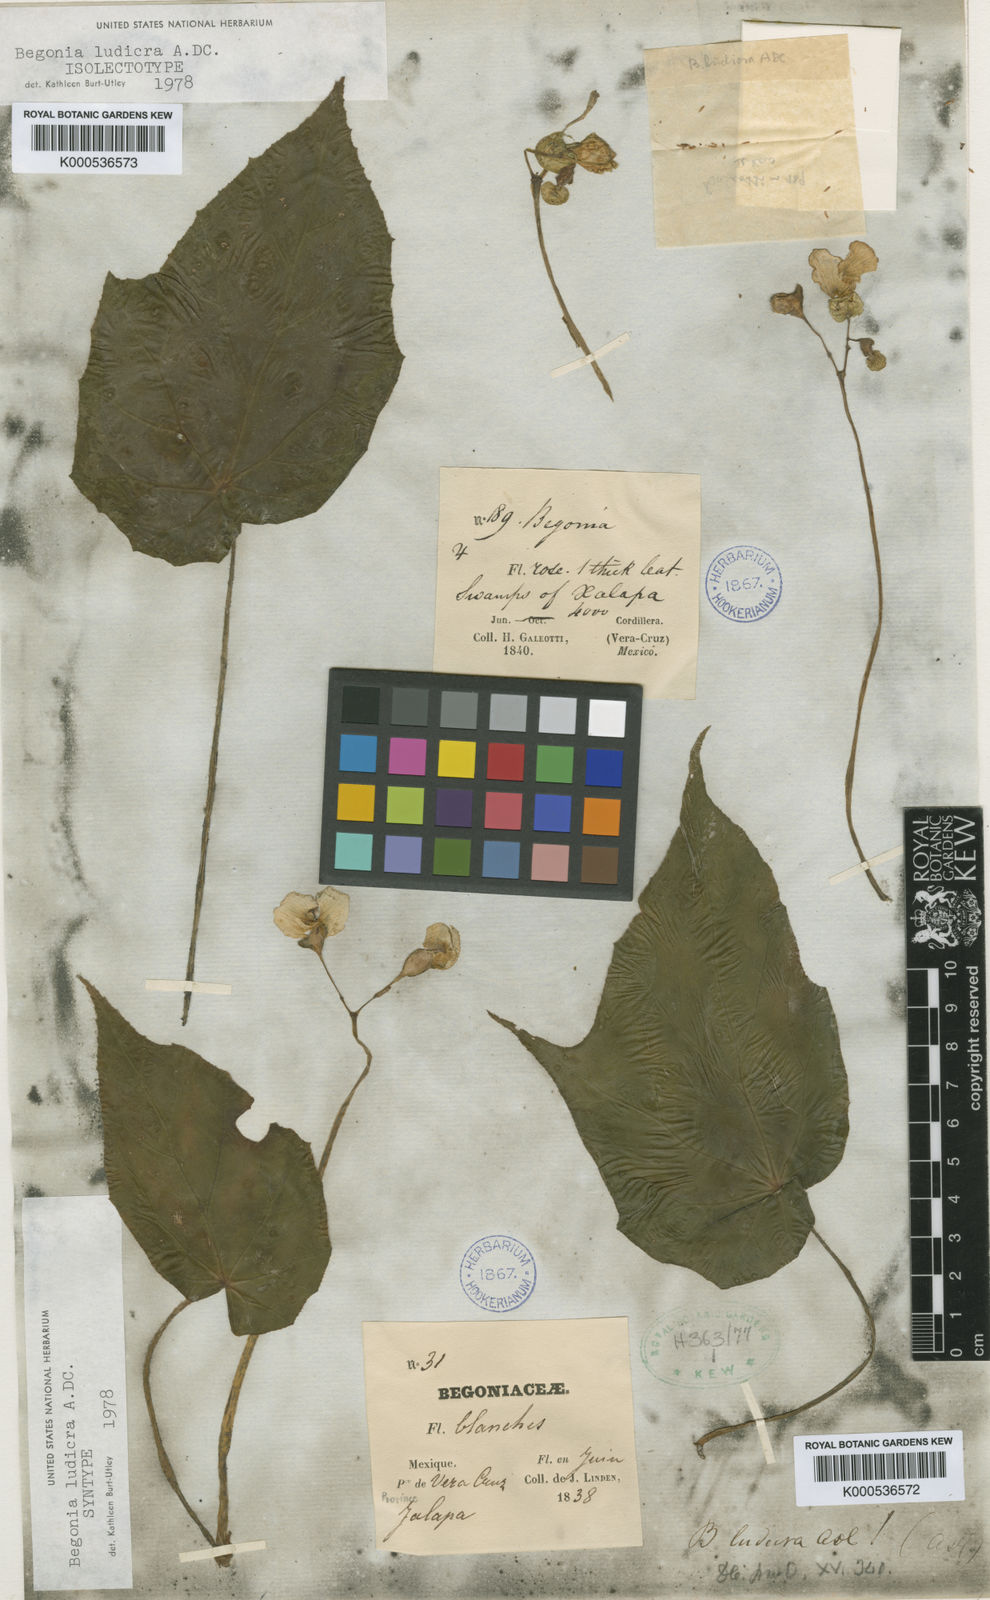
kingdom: Plantae
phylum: Tracheophyta
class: Magnoliopsida
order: Cucurbitales
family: Begoniaceae
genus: Begonia
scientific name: Begonia ludicra
